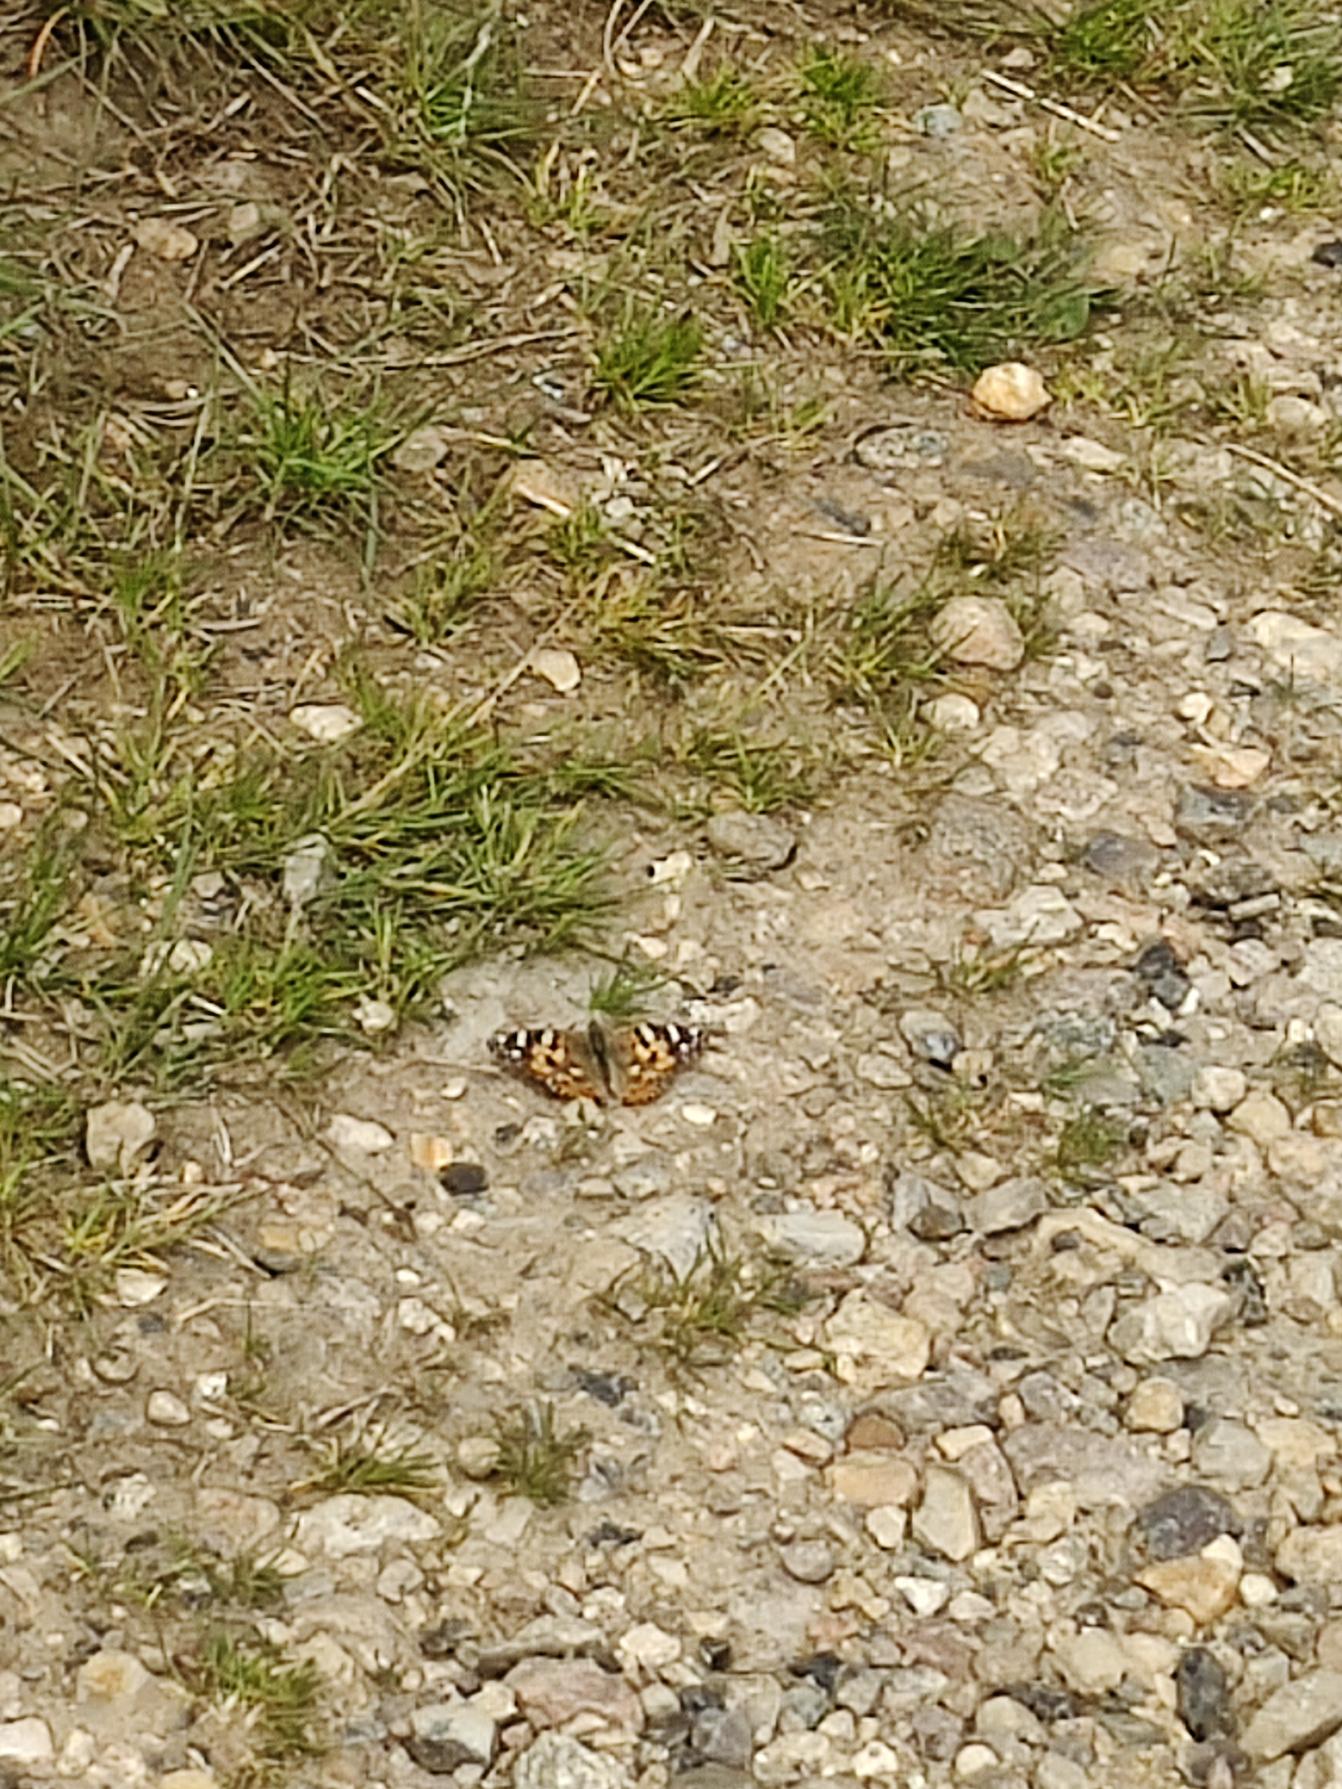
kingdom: Animalia
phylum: Arthropoda
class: Insecta
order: Lepidoptera
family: Nymphalidae
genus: Vanessa
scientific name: Vanessa cardui
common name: Tidselsommerfugl
